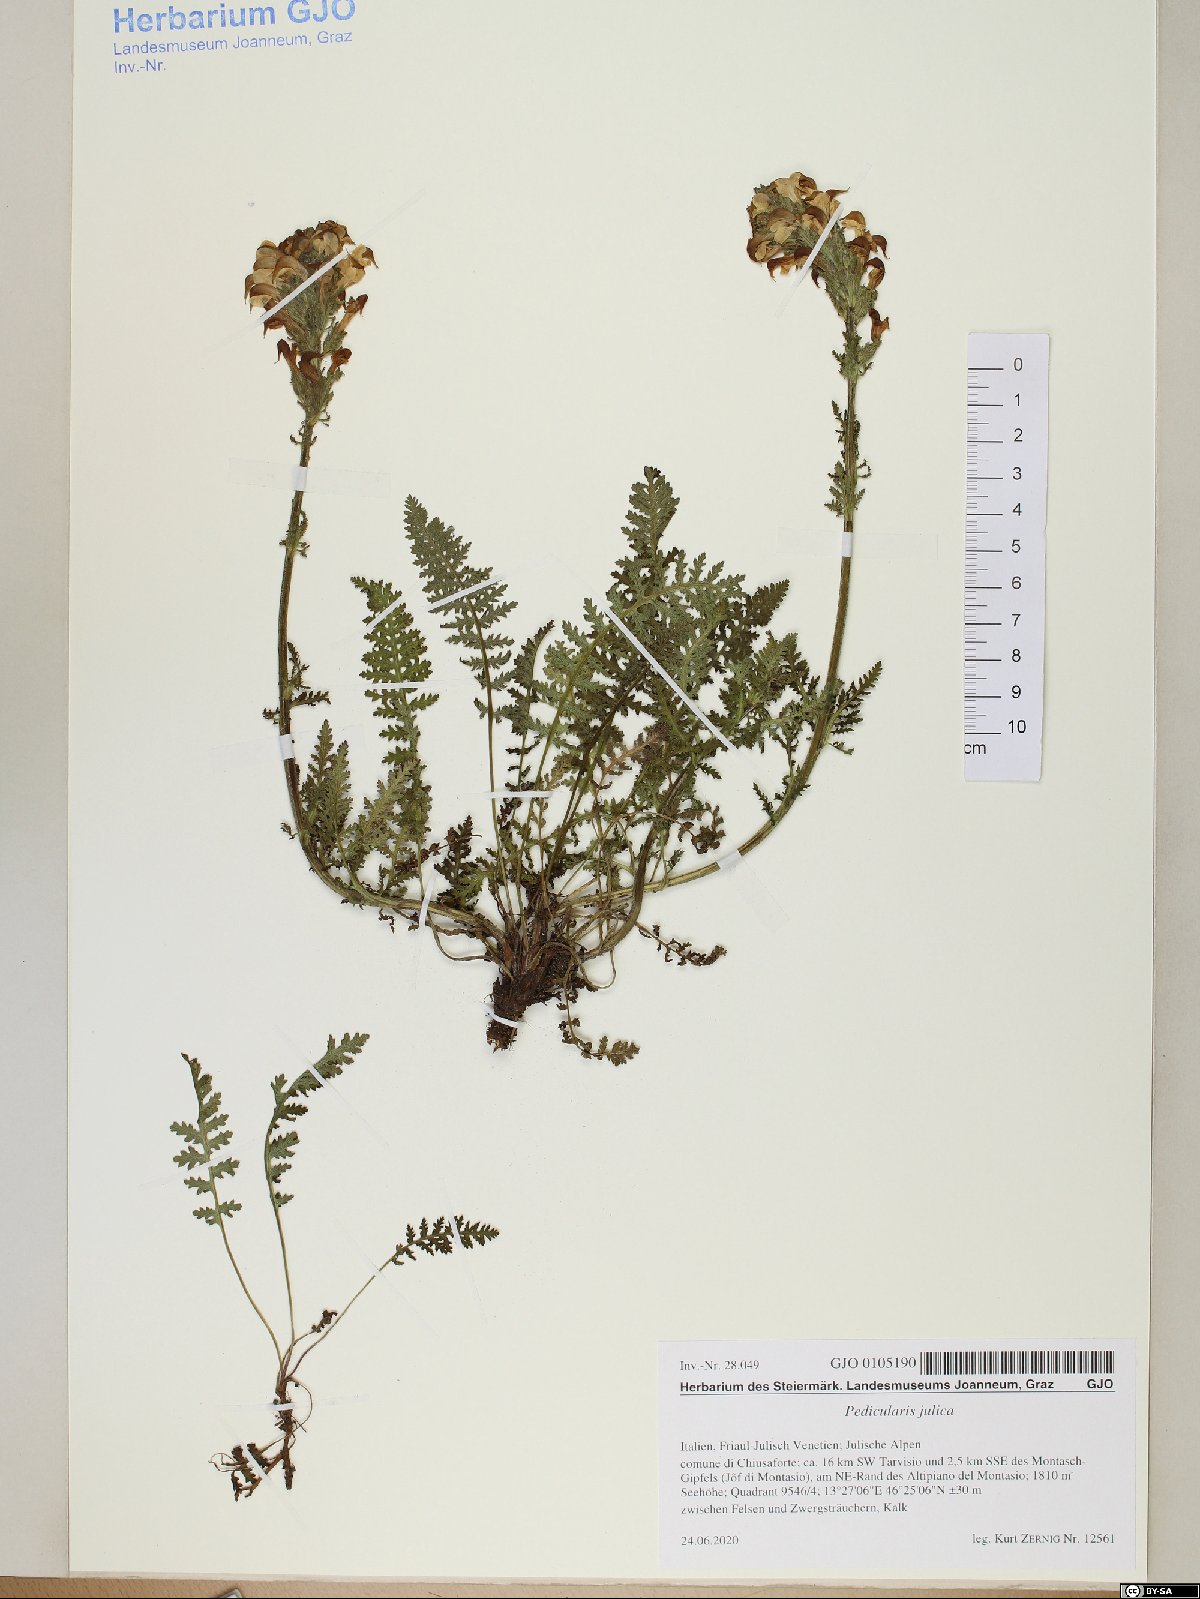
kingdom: Plantae
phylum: Tracheophyta
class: Magnoliopsida
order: Lamiales
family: Orobanchaceae
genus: Pedicularis
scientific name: Pedicularis julica
